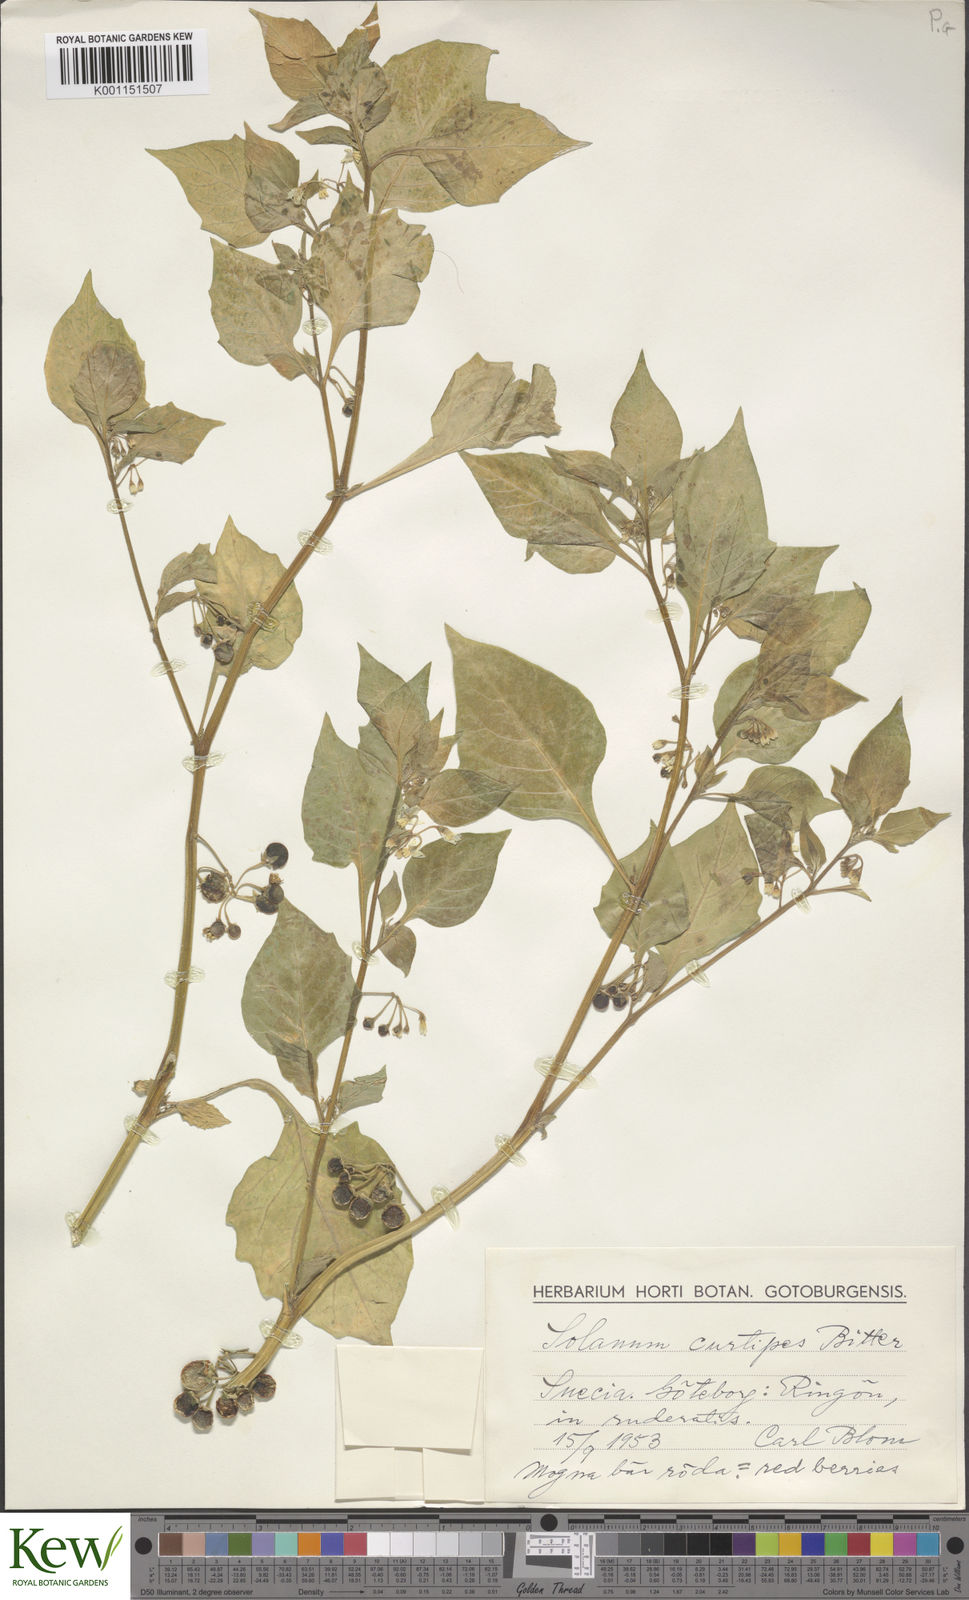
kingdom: Plantae
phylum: Tracheophyta
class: Magnoliopsida
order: Solanales
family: Solanaceae
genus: Solanum
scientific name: Solanum villosum
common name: Red nightshade
